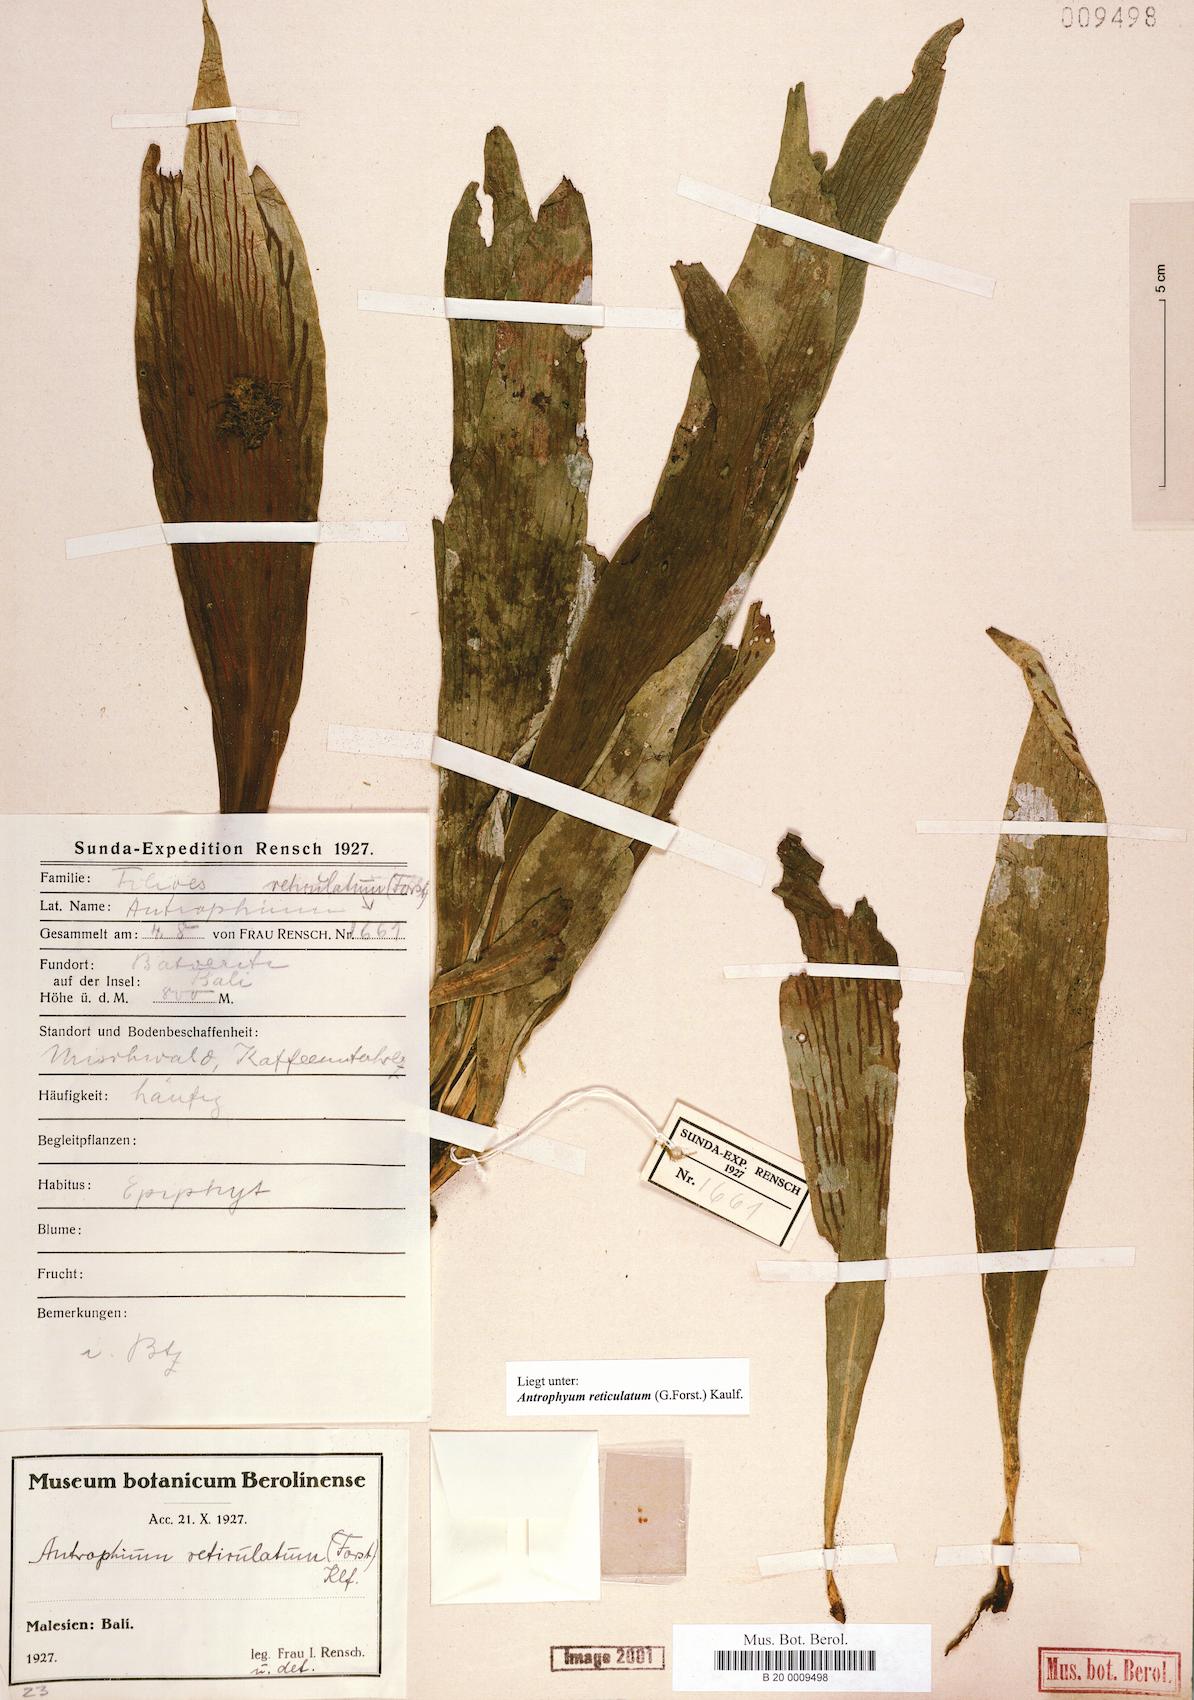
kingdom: Plantae
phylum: Tracheophyta
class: Polypodiopsida
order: Polypodiales
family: Pteridaceae
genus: Antrophyum
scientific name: Antrophyum reticulatum
